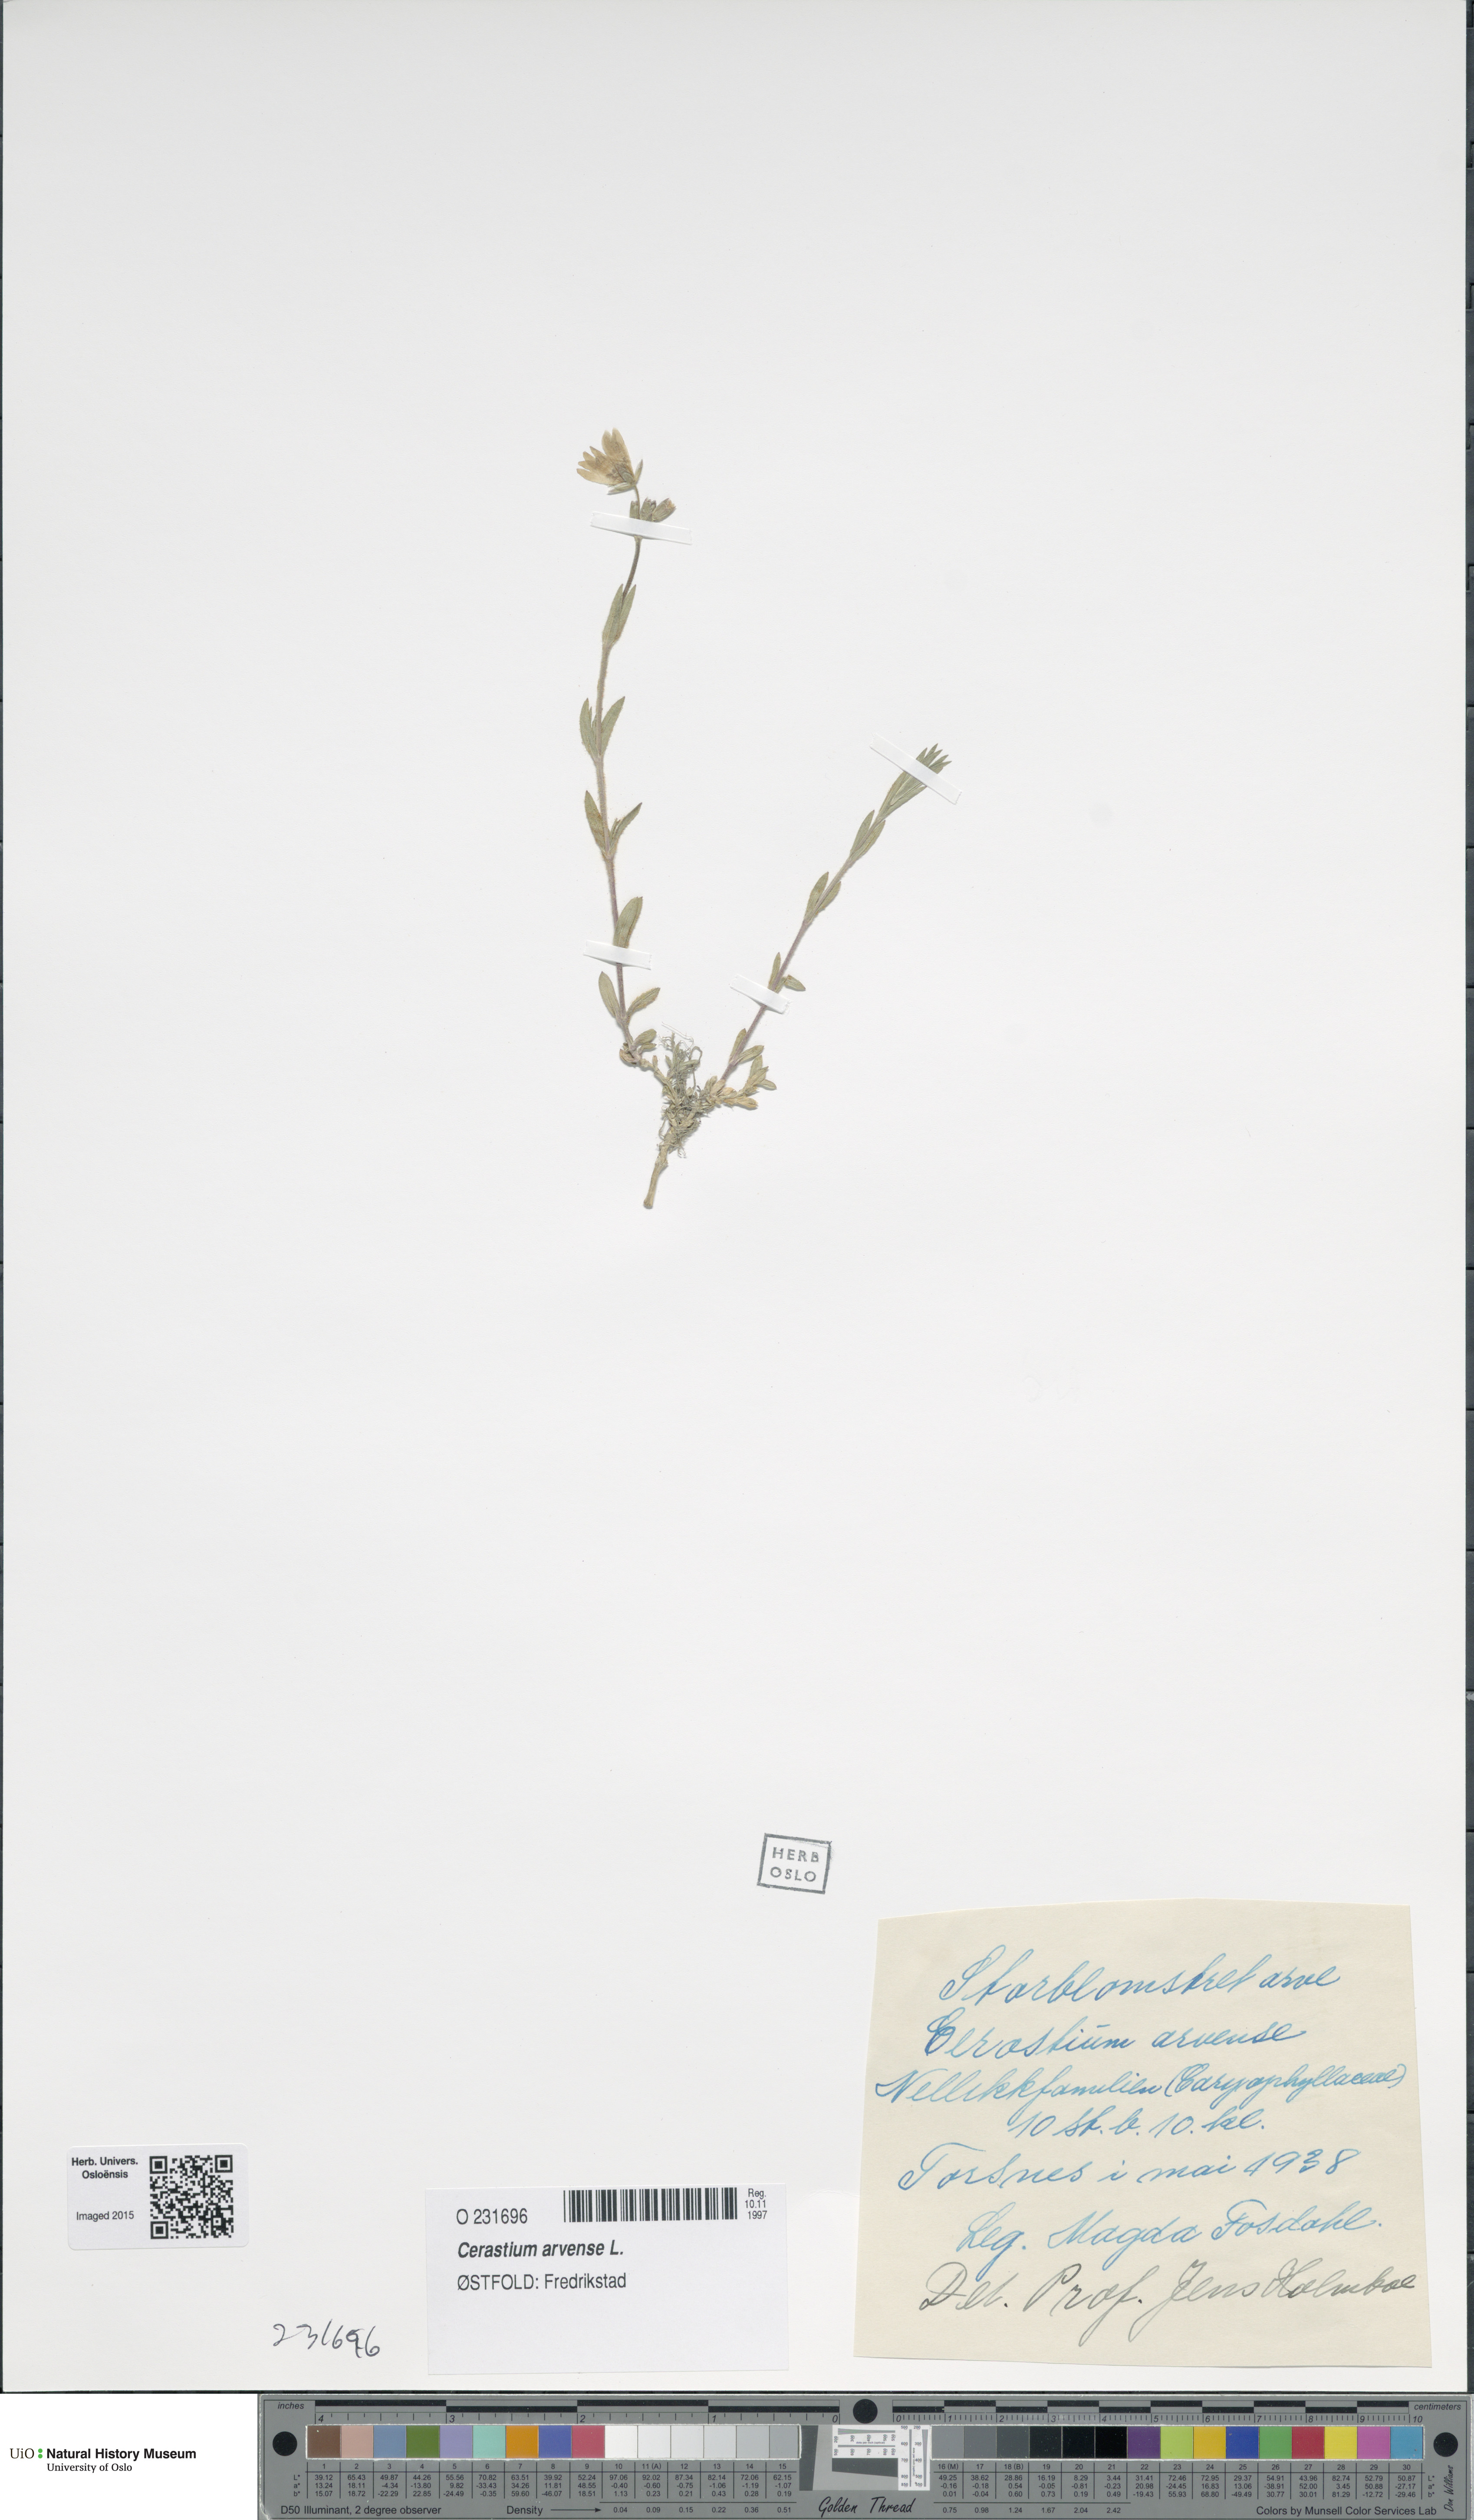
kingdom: Plantae
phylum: Tracheophyta
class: Magnoliopsida
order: Caryophyllales
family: Caryophyllaceae
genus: Cerastium
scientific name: Cerastium arvense
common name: Field mouse-ear
